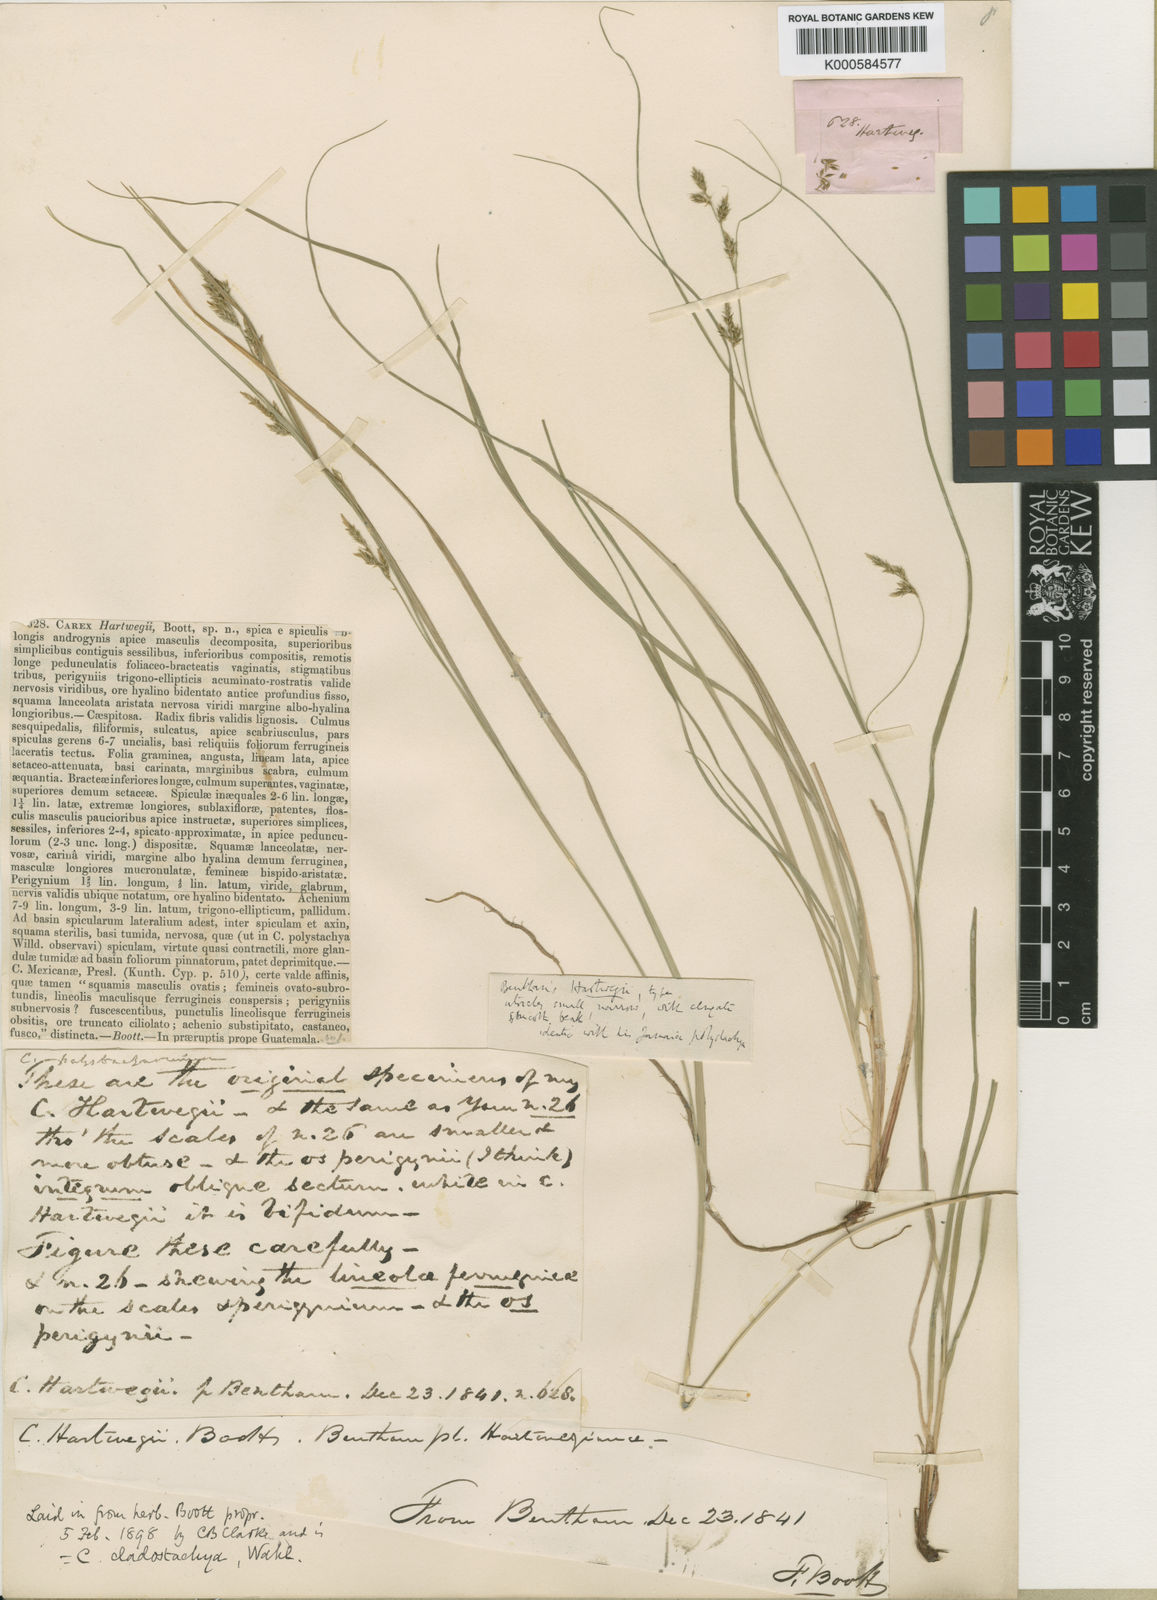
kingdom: Plantae
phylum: Tracheophyta
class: Liliopsida
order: Poales
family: Cyperaceae
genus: Carex
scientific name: Carex polystachya
